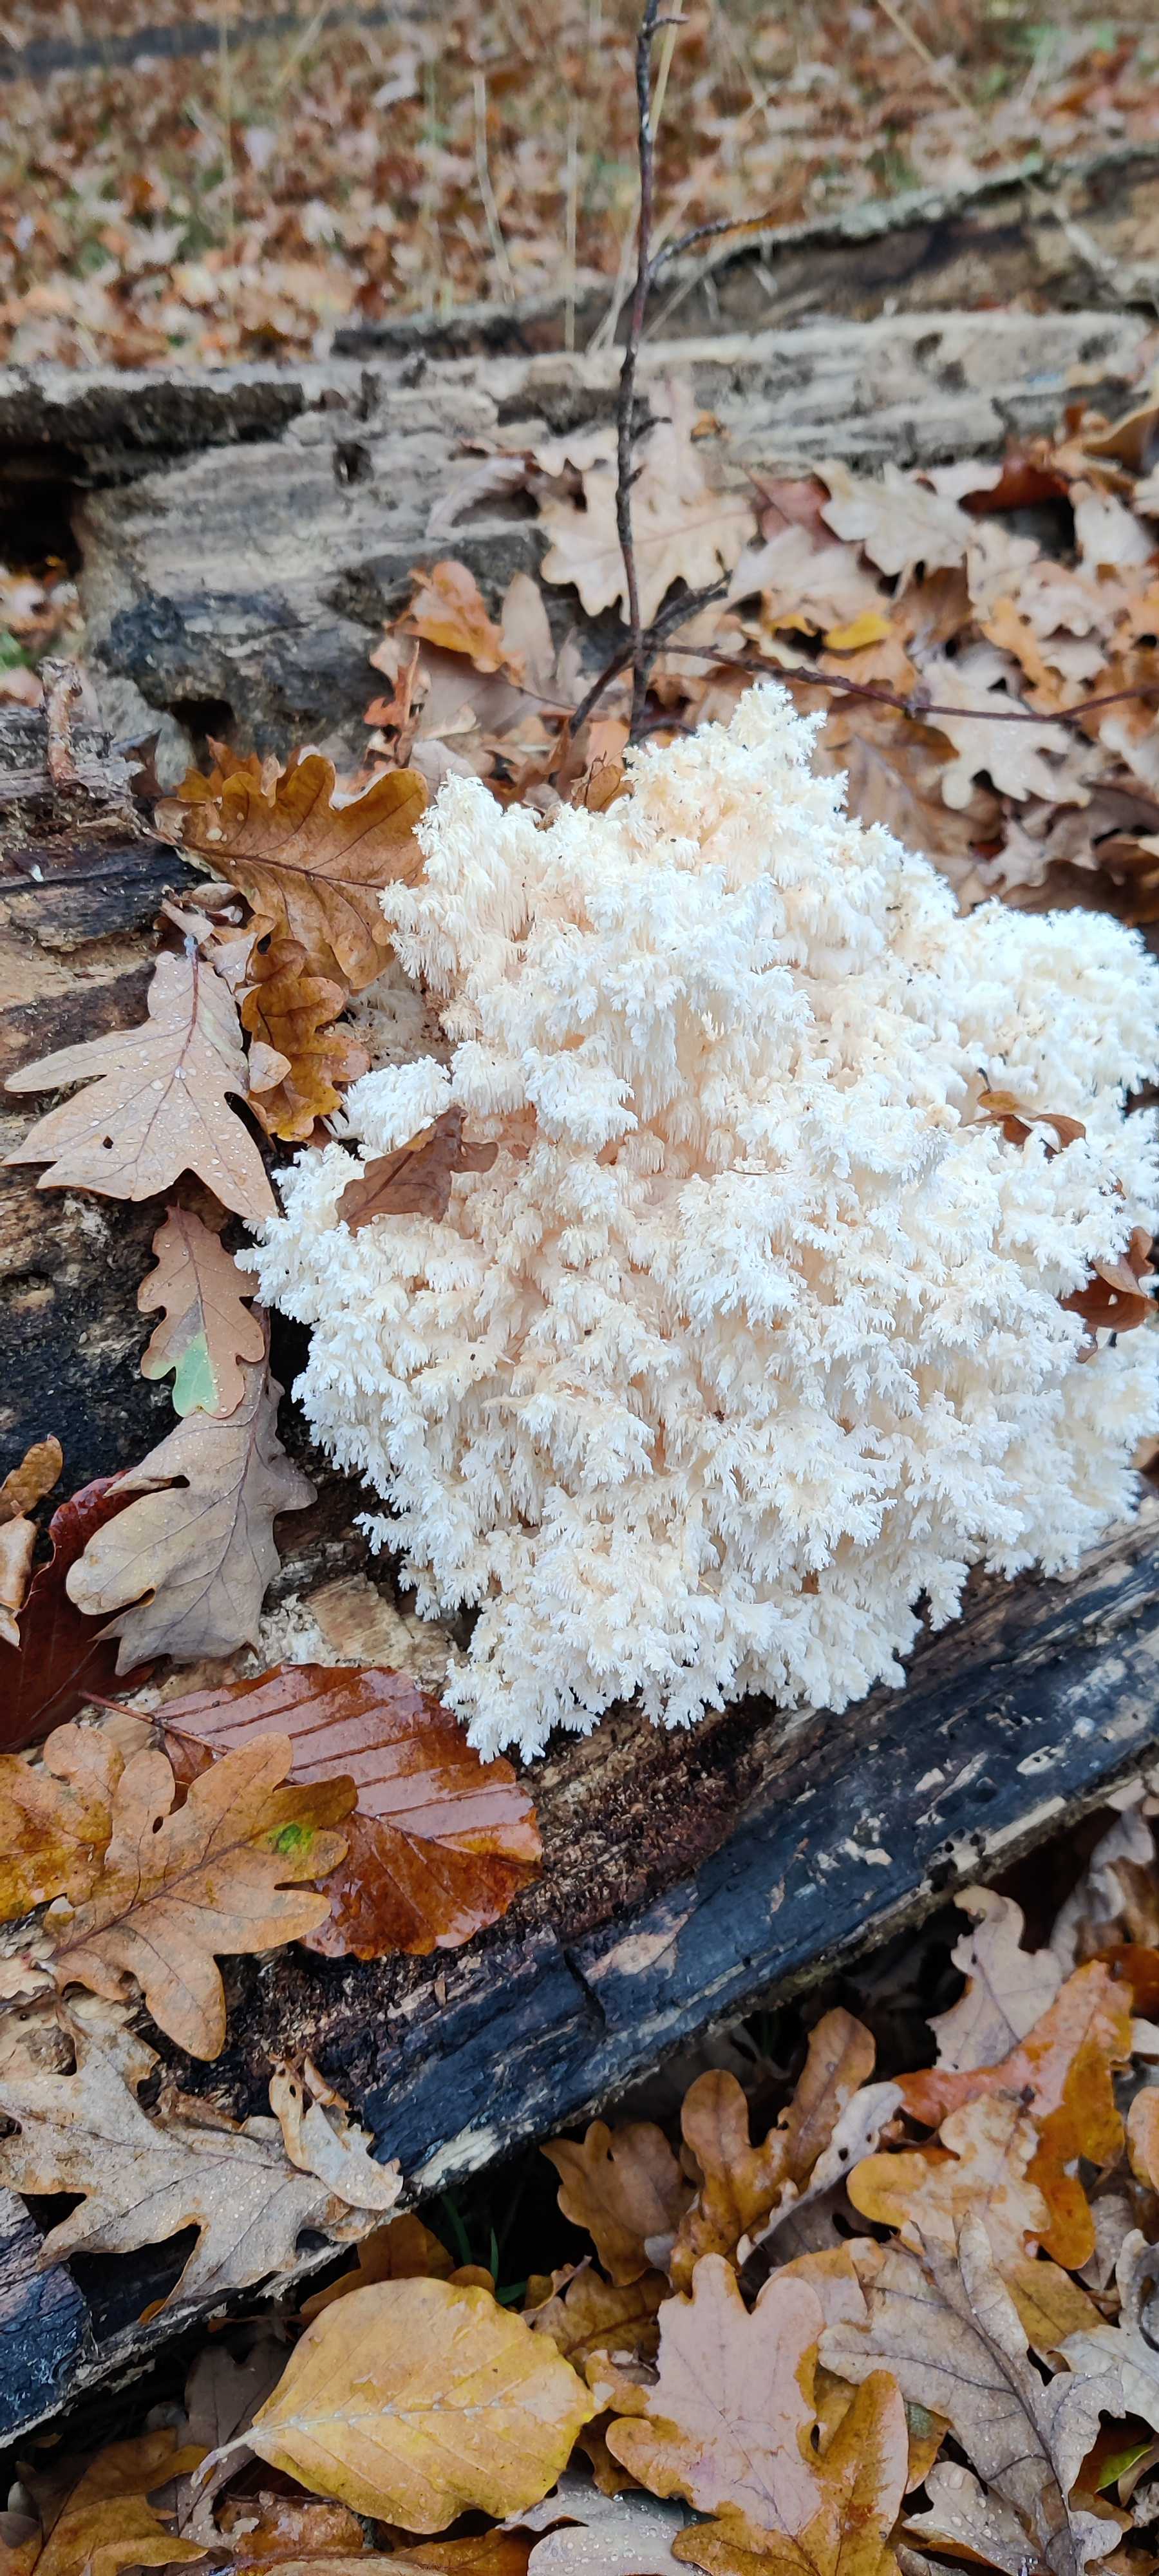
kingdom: Fungi
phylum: Basidiomycota
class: Agaricomycetes
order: Russulales
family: Hericiaceae
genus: Hericium
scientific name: Hericium coralloides
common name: koralpigsvamp
